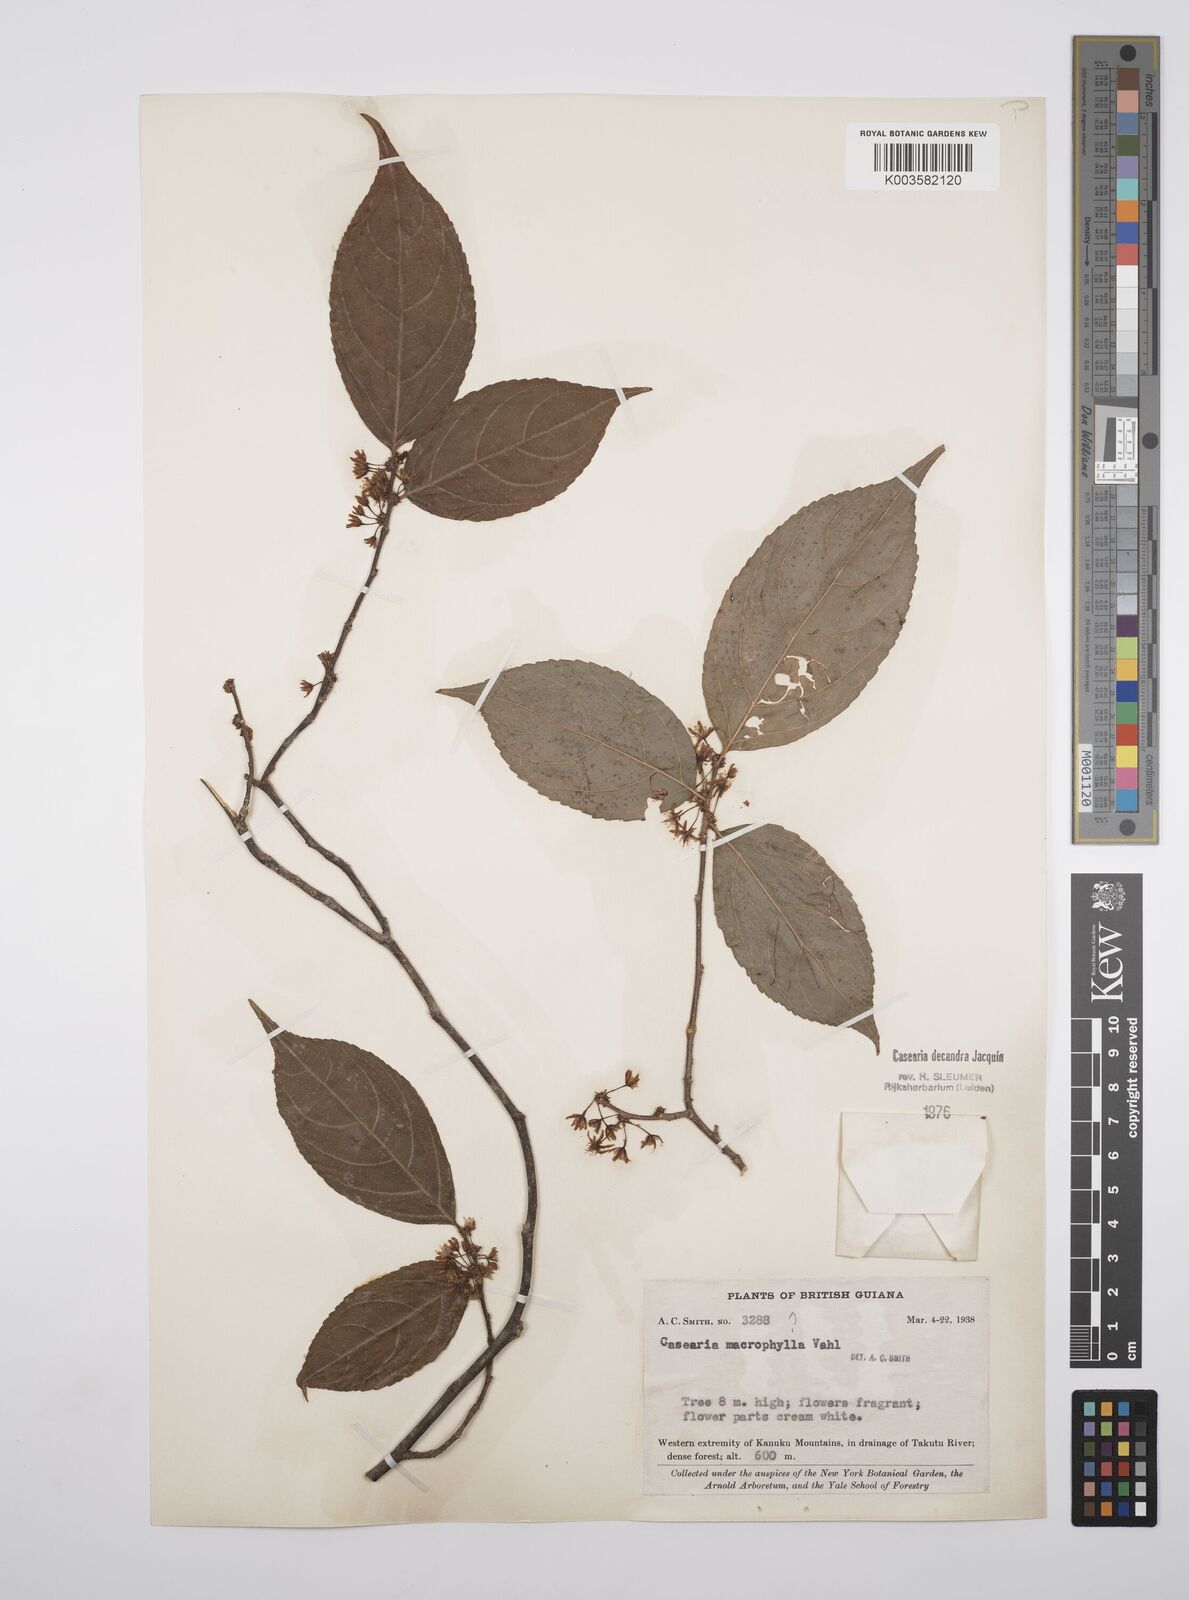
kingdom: Plantae
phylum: Tracheophyta
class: Magnoliopsida
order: Malpighiales
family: Salicaceae
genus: Casearia
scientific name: Casearia decandra
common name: Crack open
